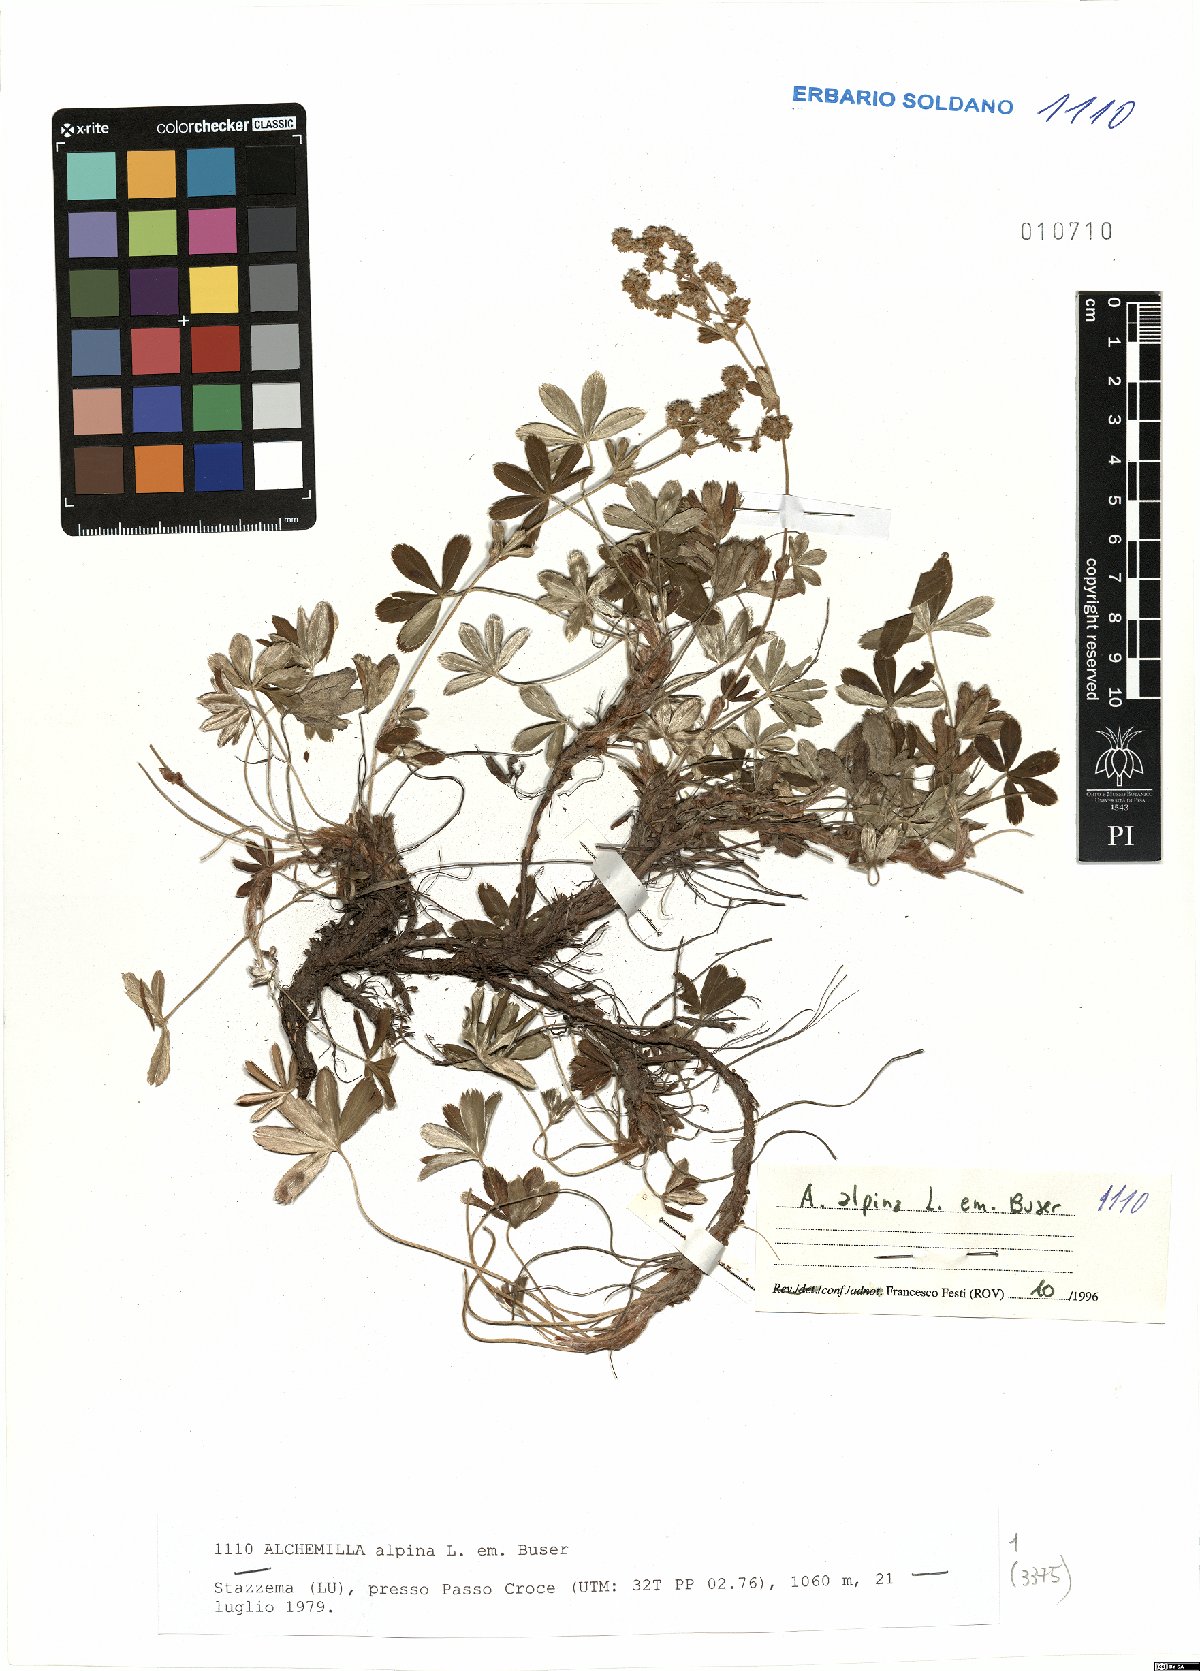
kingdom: Plantae
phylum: Tracheophyta
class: Magnoliopsida
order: Rosales
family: Rosaceae
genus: Alchemilla
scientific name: Alchemilla alpina
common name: Alpine lady's-mantle
